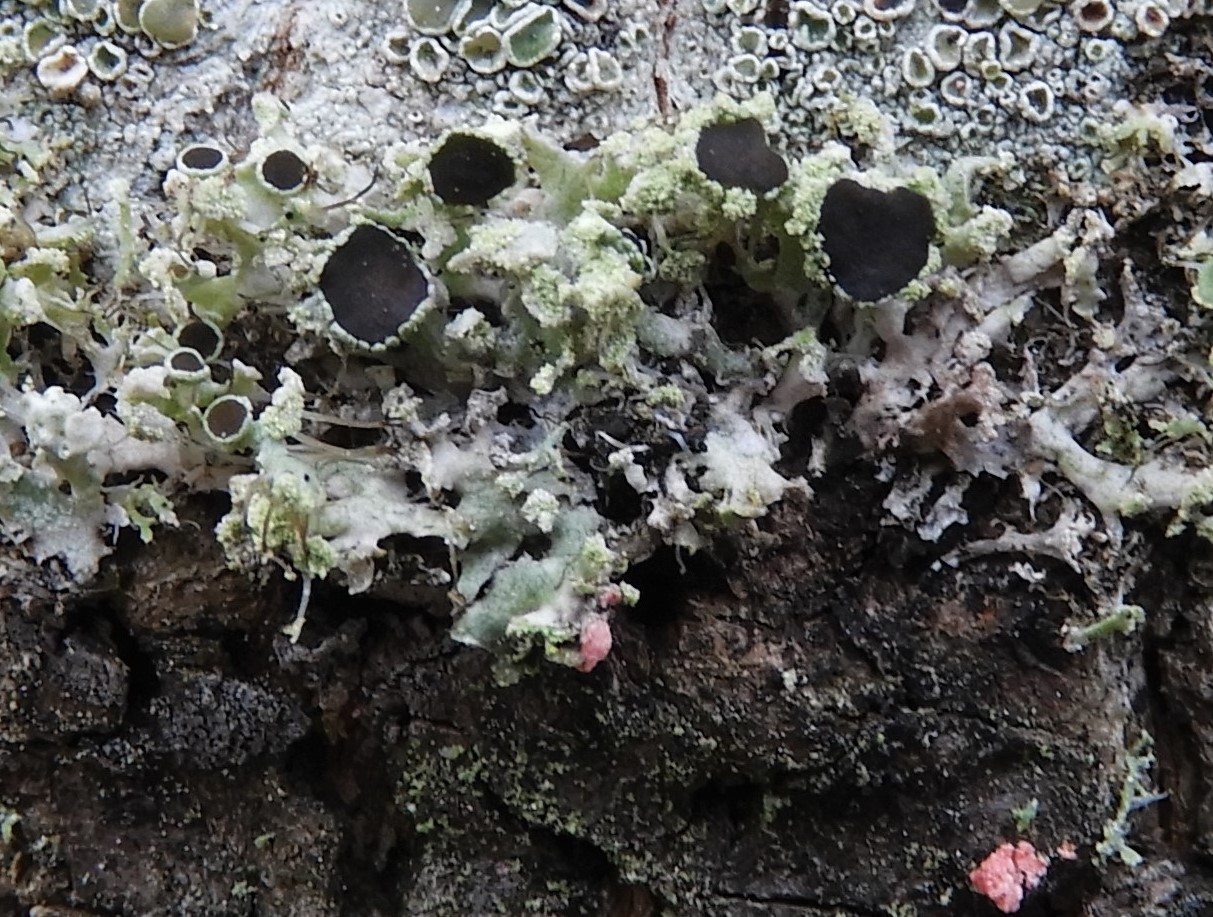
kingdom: Fungi
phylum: Ascomycota
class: Lecanoromycetes
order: Caliciales
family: Physciaceae
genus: Physcia
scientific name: Physcia tenella
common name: spæd rosetlav
